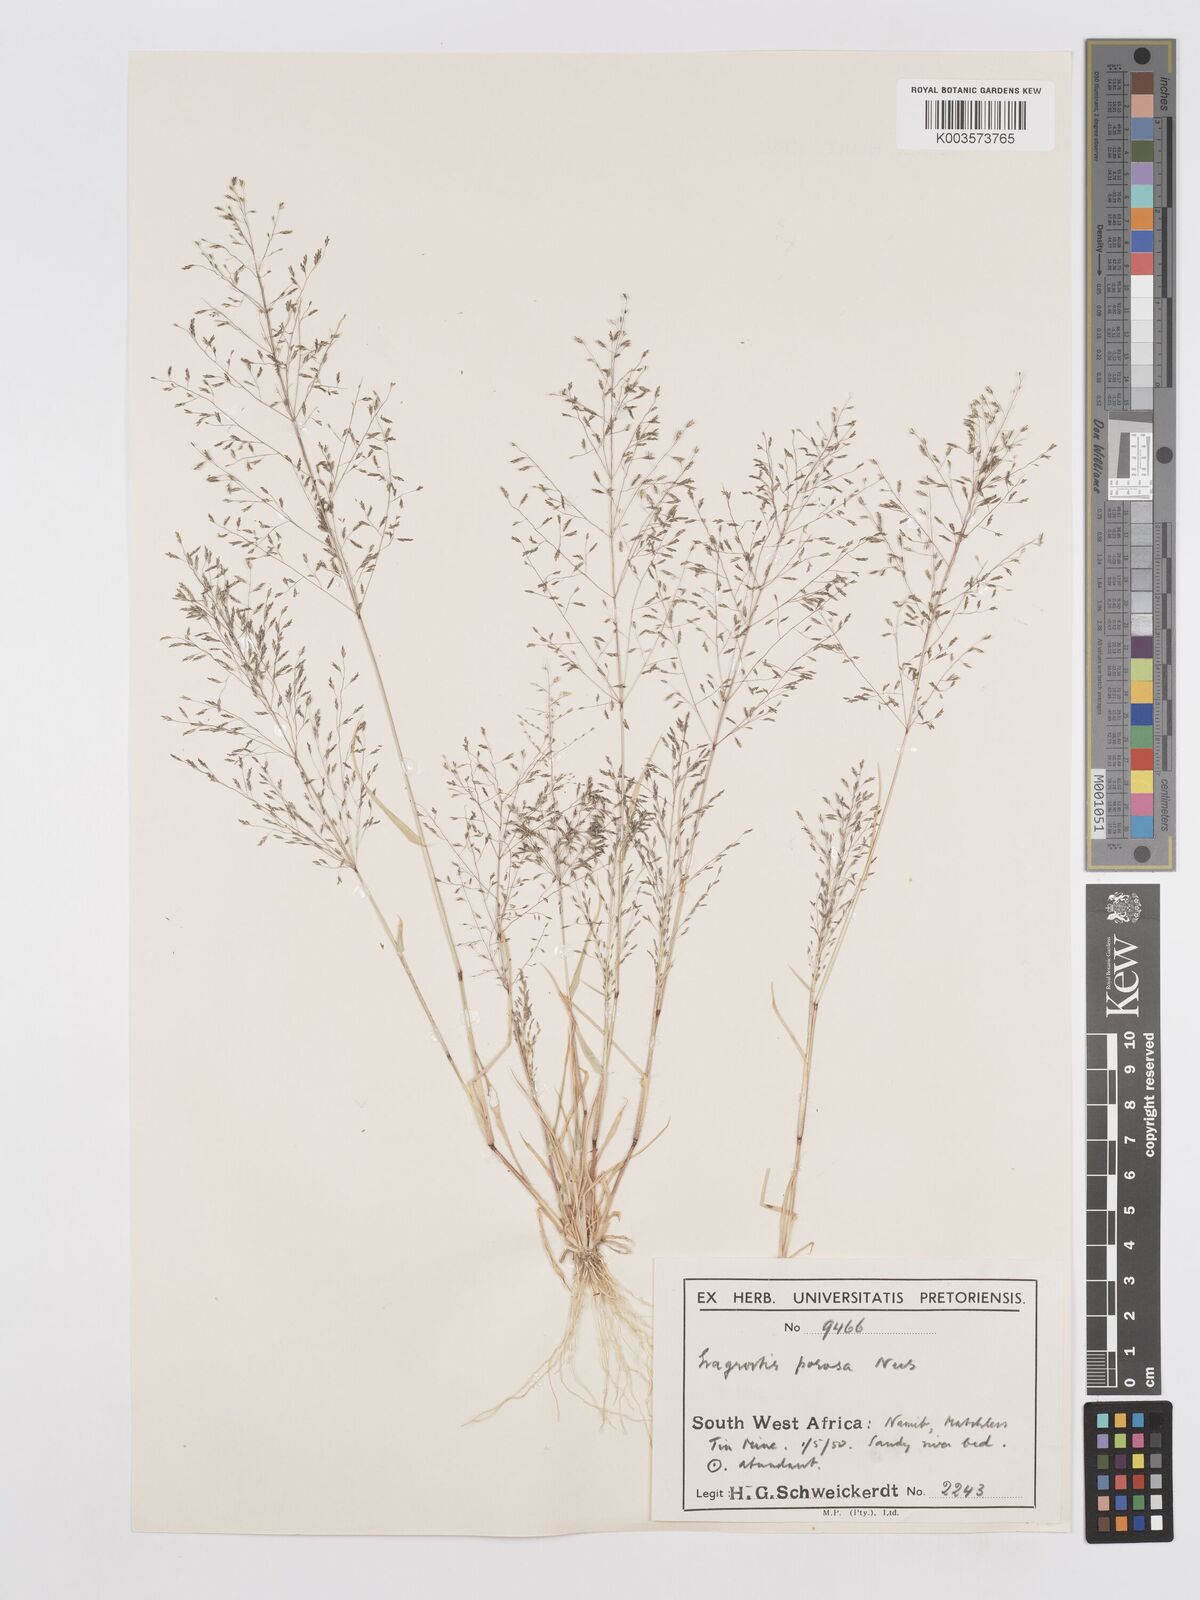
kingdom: Plantae
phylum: Tracheophyta
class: Liliopsida
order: Poales
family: Poaceae
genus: Eragrostis
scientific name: Eragrostis porosa
